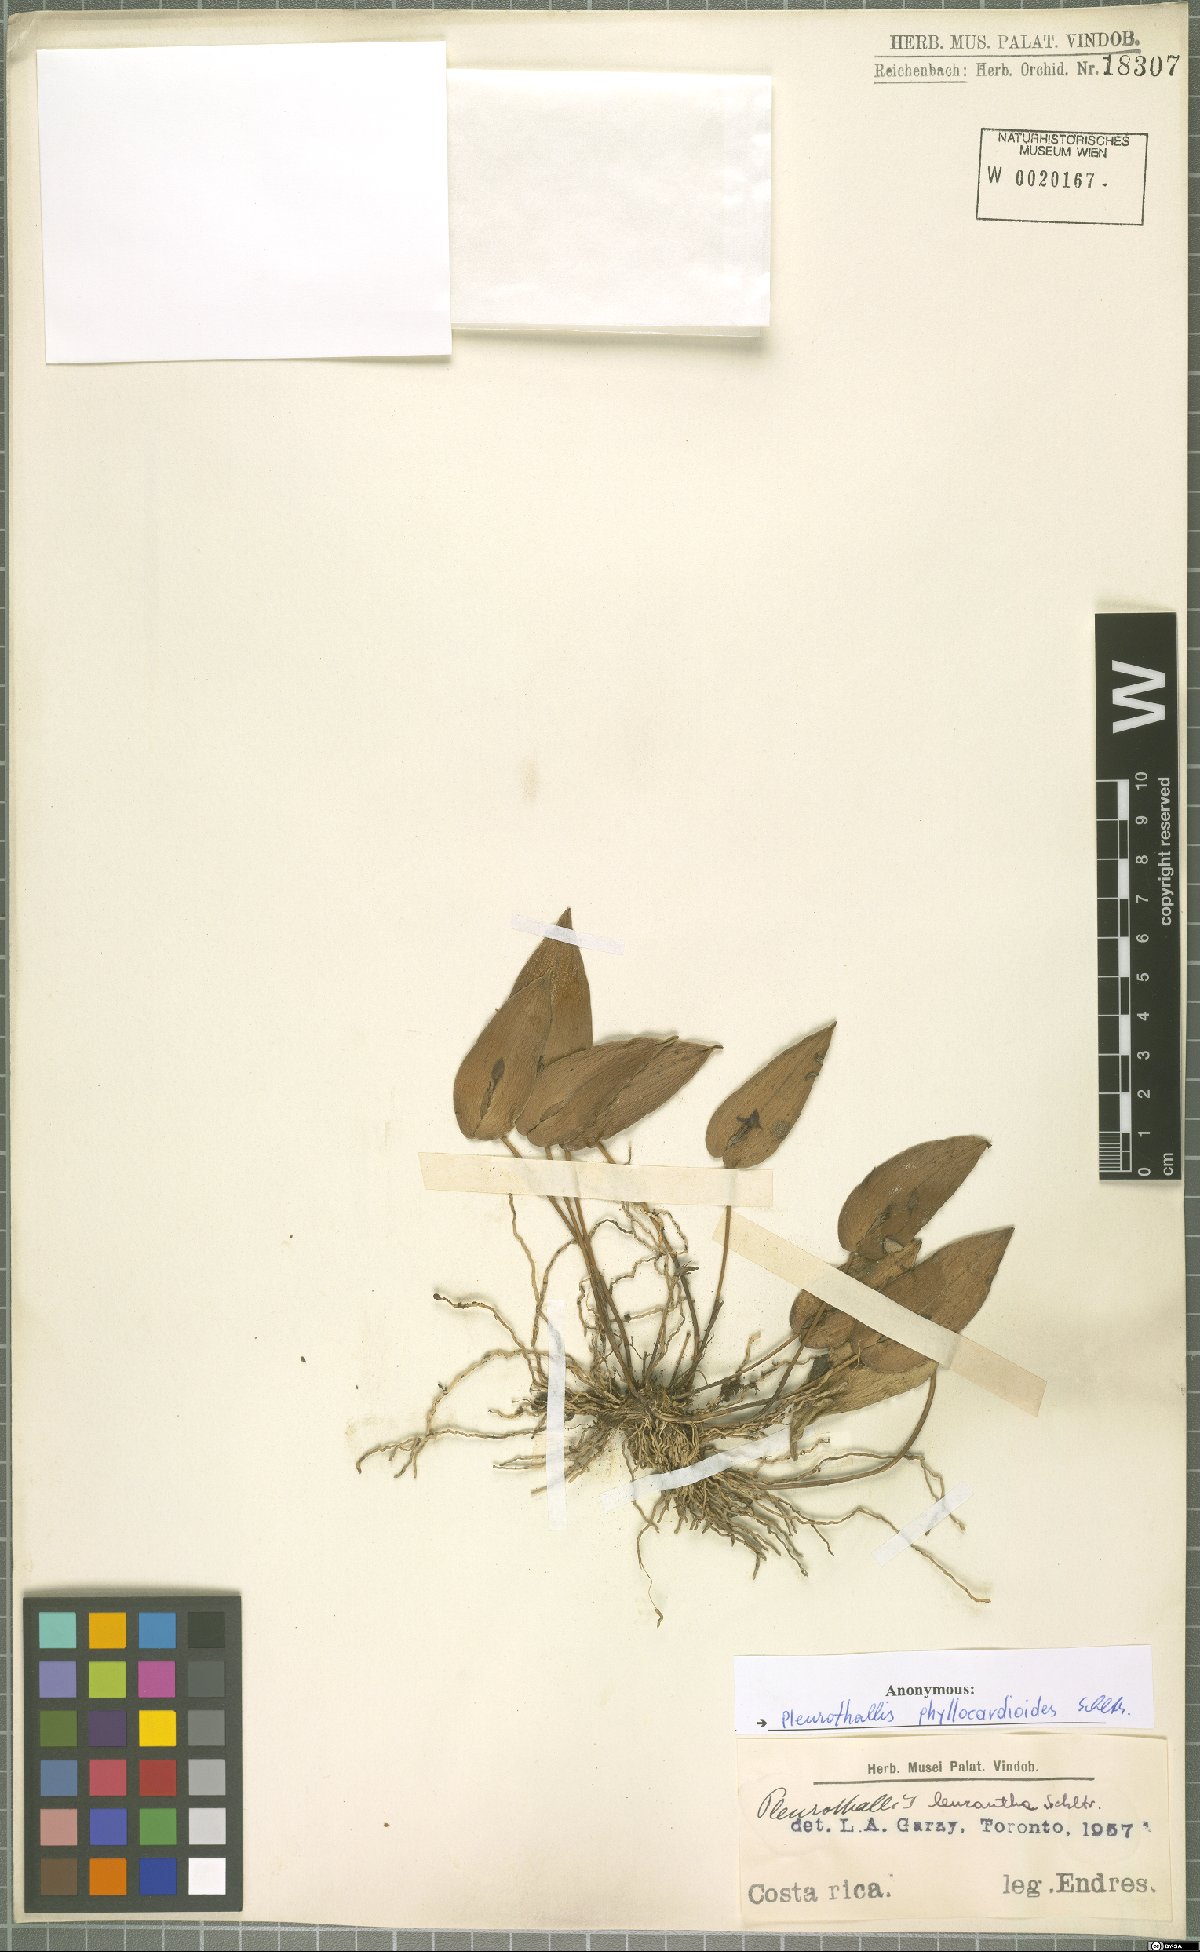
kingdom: Plantae
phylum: Tracheophyta
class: Liliopsida
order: Asparagales
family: Orchidaceae
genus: Pleurothallis
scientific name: Pleurothallis phyllocardioides
